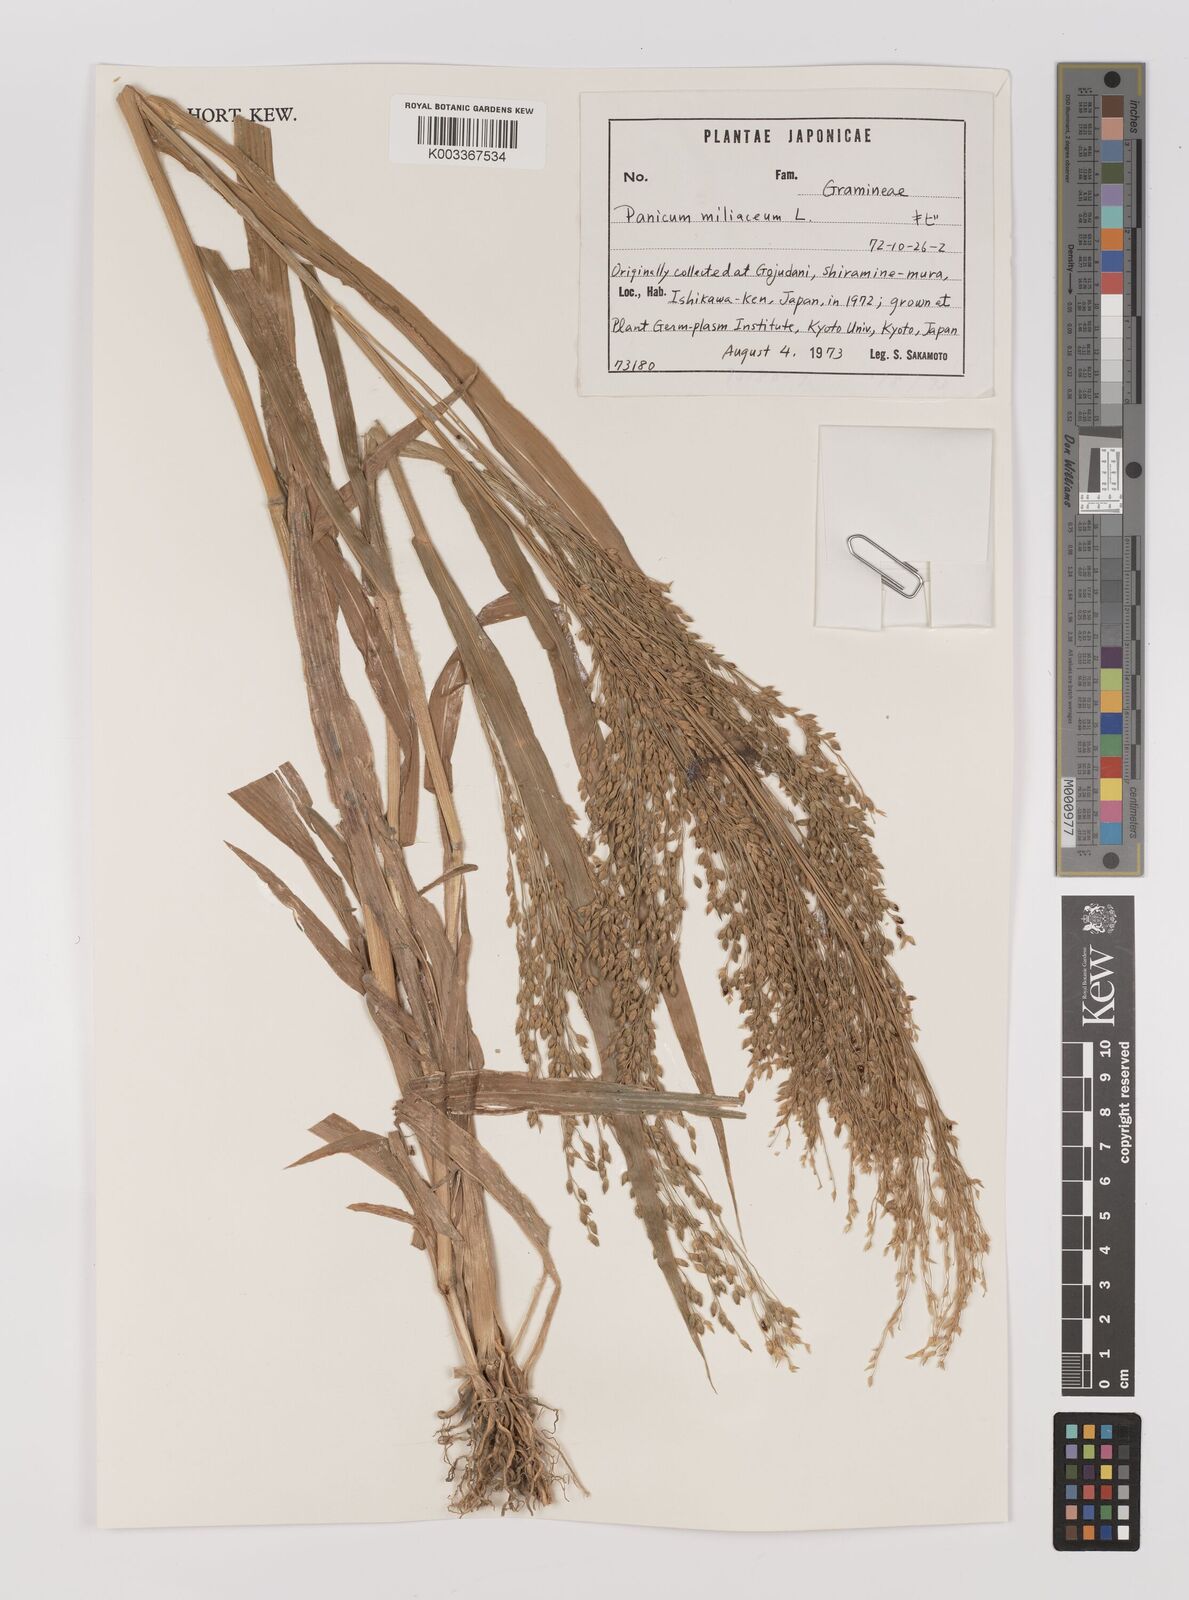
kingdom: Plantae
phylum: Tracheophyta
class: Liliopsida
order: Poales
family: Poaceae
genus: Panicum
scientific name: Panicum miliaceum
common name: Common millet
